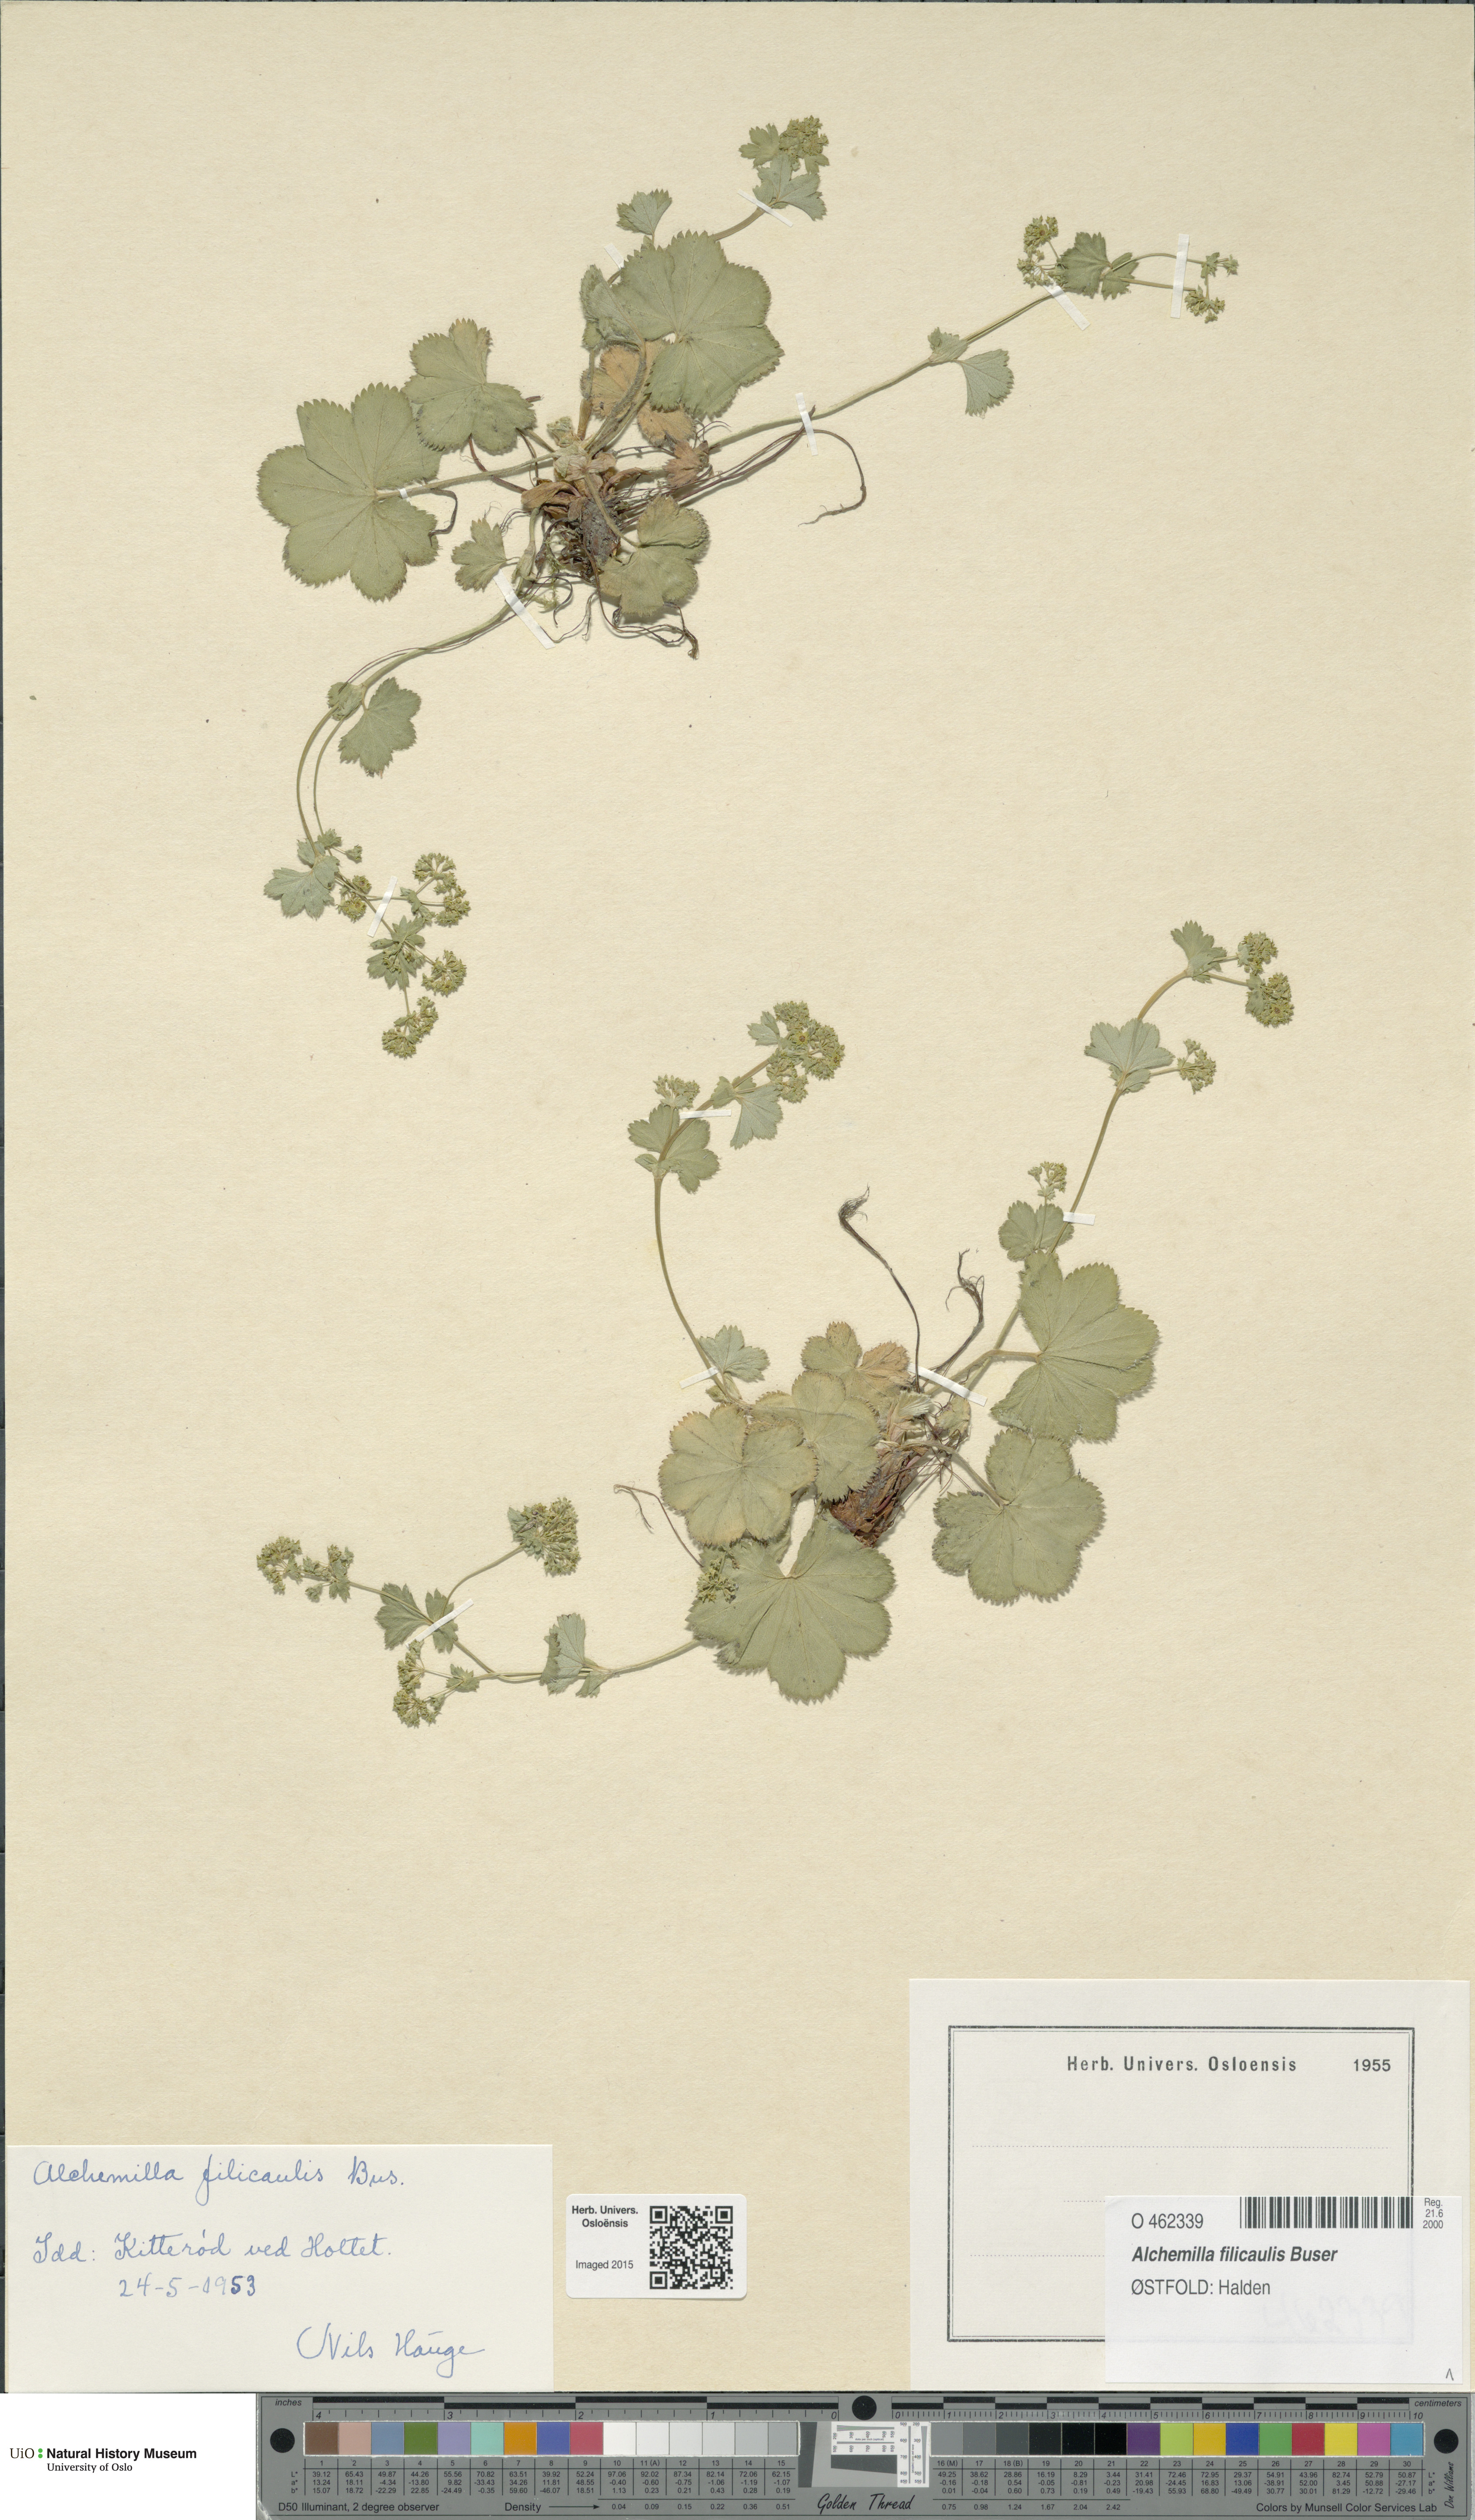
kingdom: Plantae
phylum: Tracheophyta
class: Magnoliopsida
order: Rosales
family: Rosaceae
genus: Alchemilla
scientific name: Alchemilla filicaulis
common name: Hairy lady's-mantle
